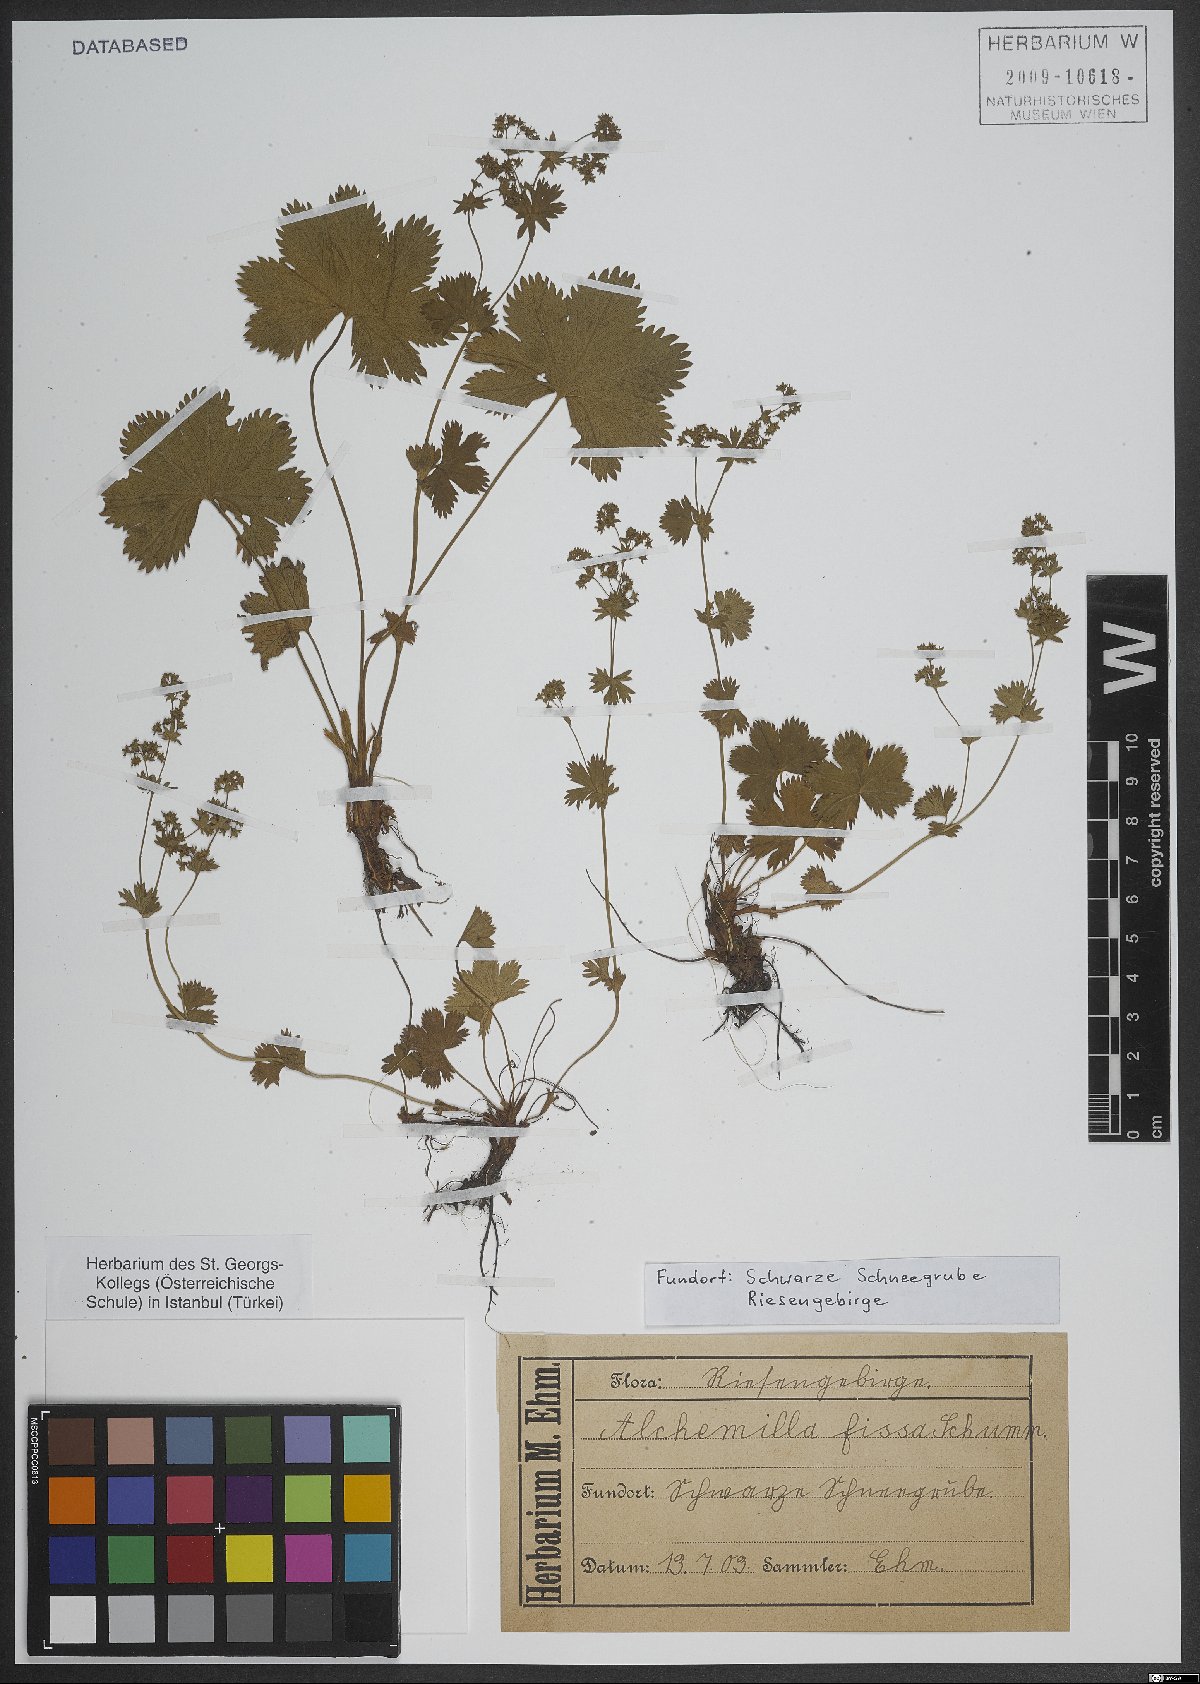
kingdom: Plantae
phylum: Tracheophyta
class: Magnoliopsida
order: Rosales
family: Rosaceae
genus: Alchemilla
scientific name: Alchemilla fissa
